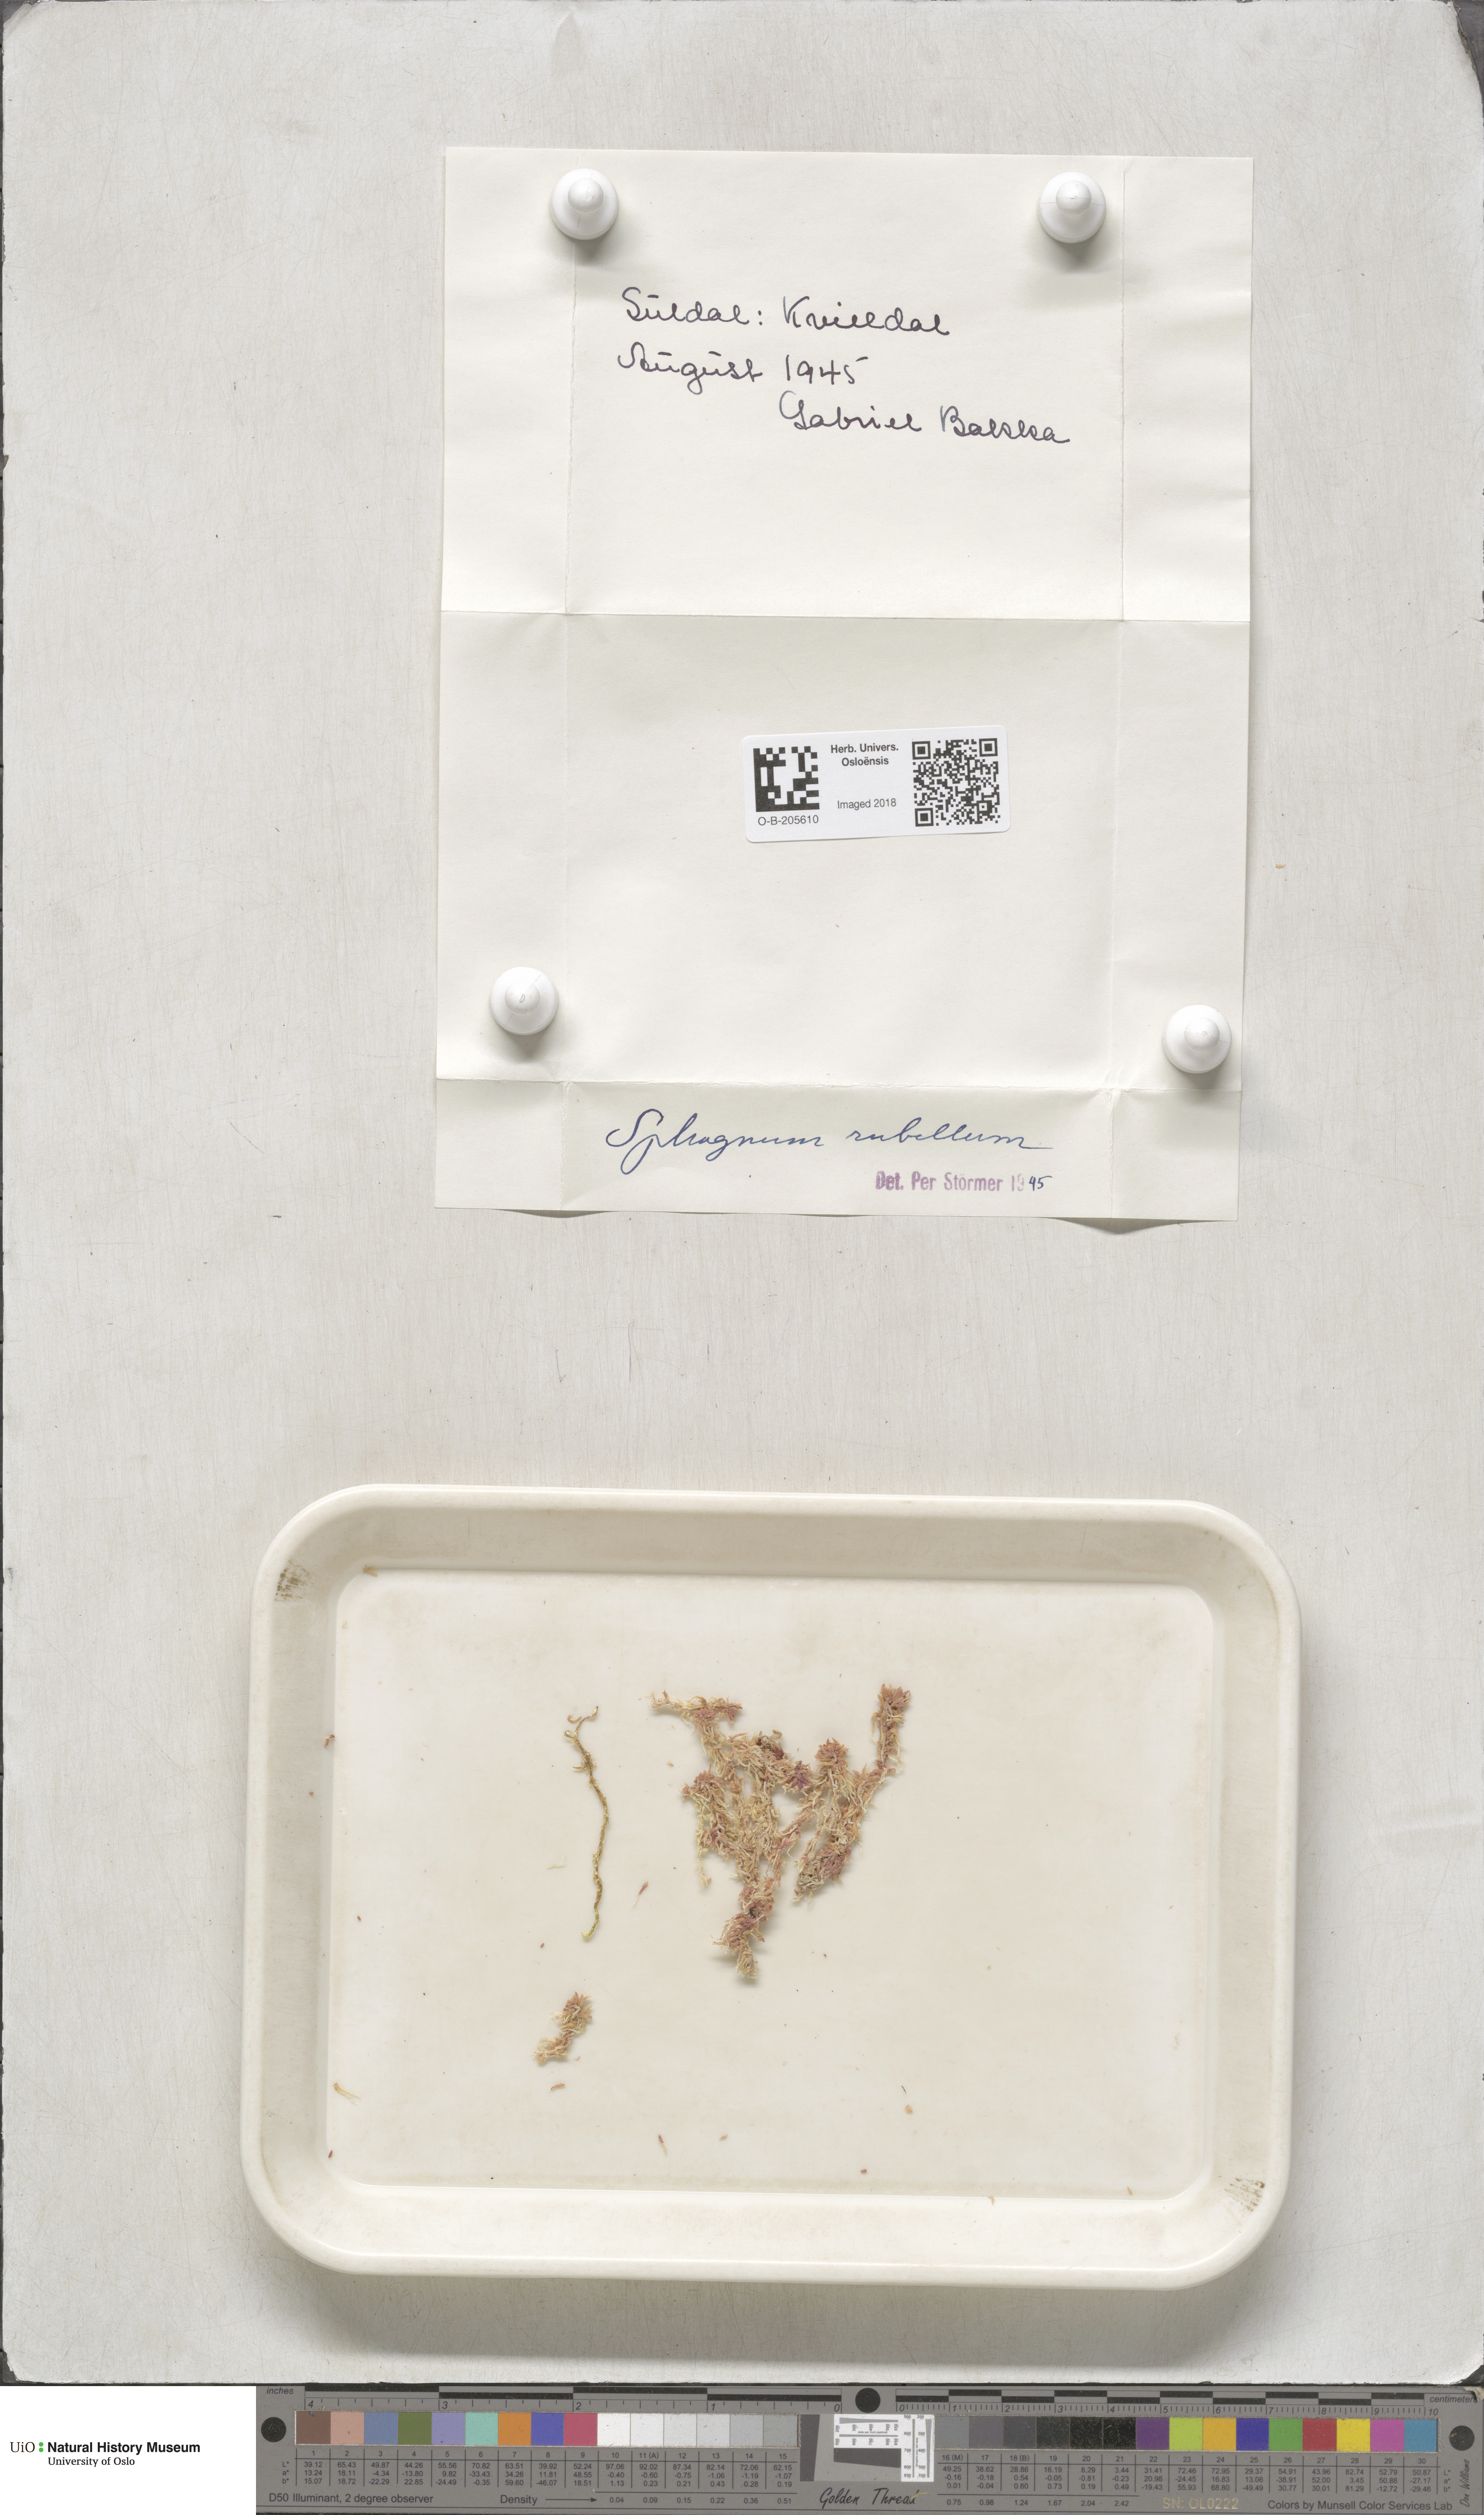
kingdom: Plantae
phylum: Bryophyta
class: Sphagnopsida
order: Sphagnales
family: Sphagnaceae
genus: Sphagnum
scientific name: Sphagnum rubellum
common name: Red peat moss
